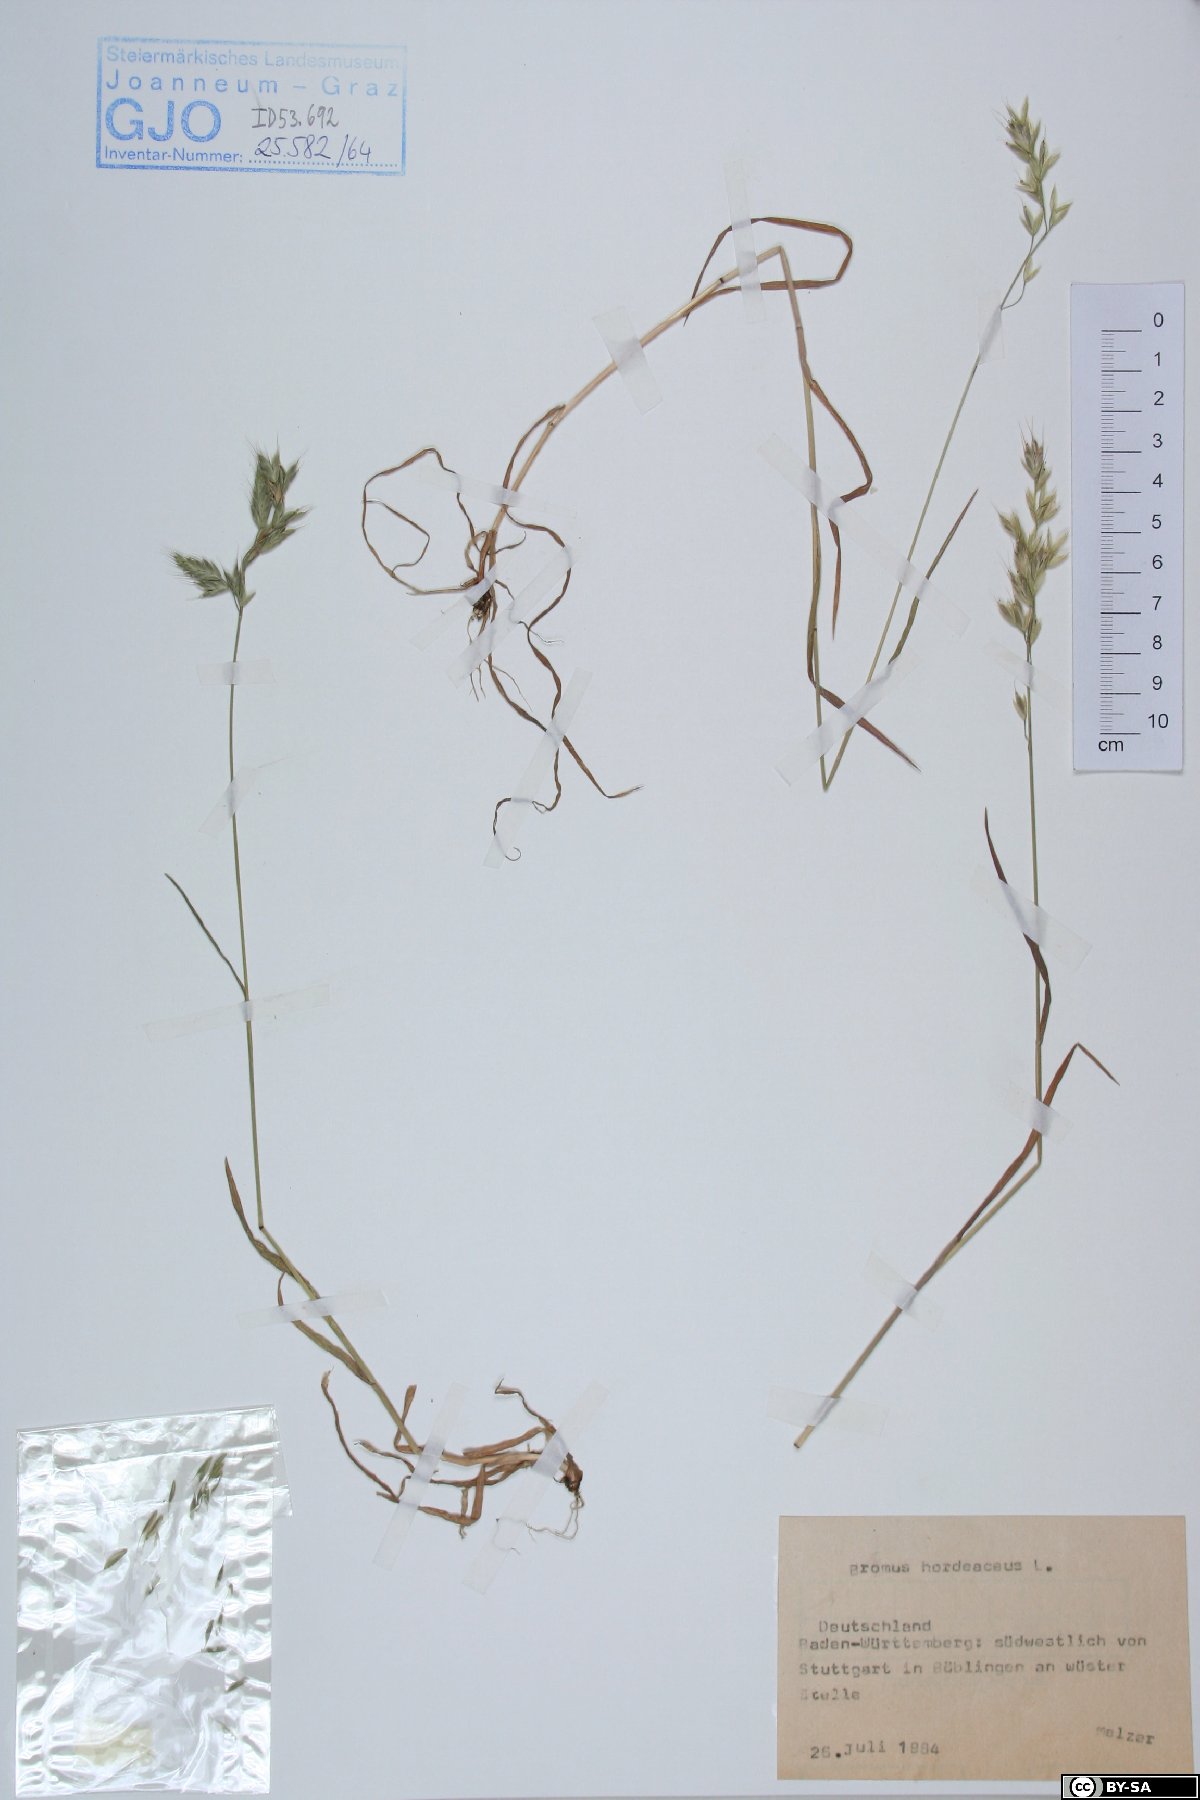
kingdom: Plantae
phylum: Tracheophyta
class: Liliopsida
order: Poales
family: Poaceae
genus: Bromus
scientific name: Bromus hordeaceus
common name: Soft brome
